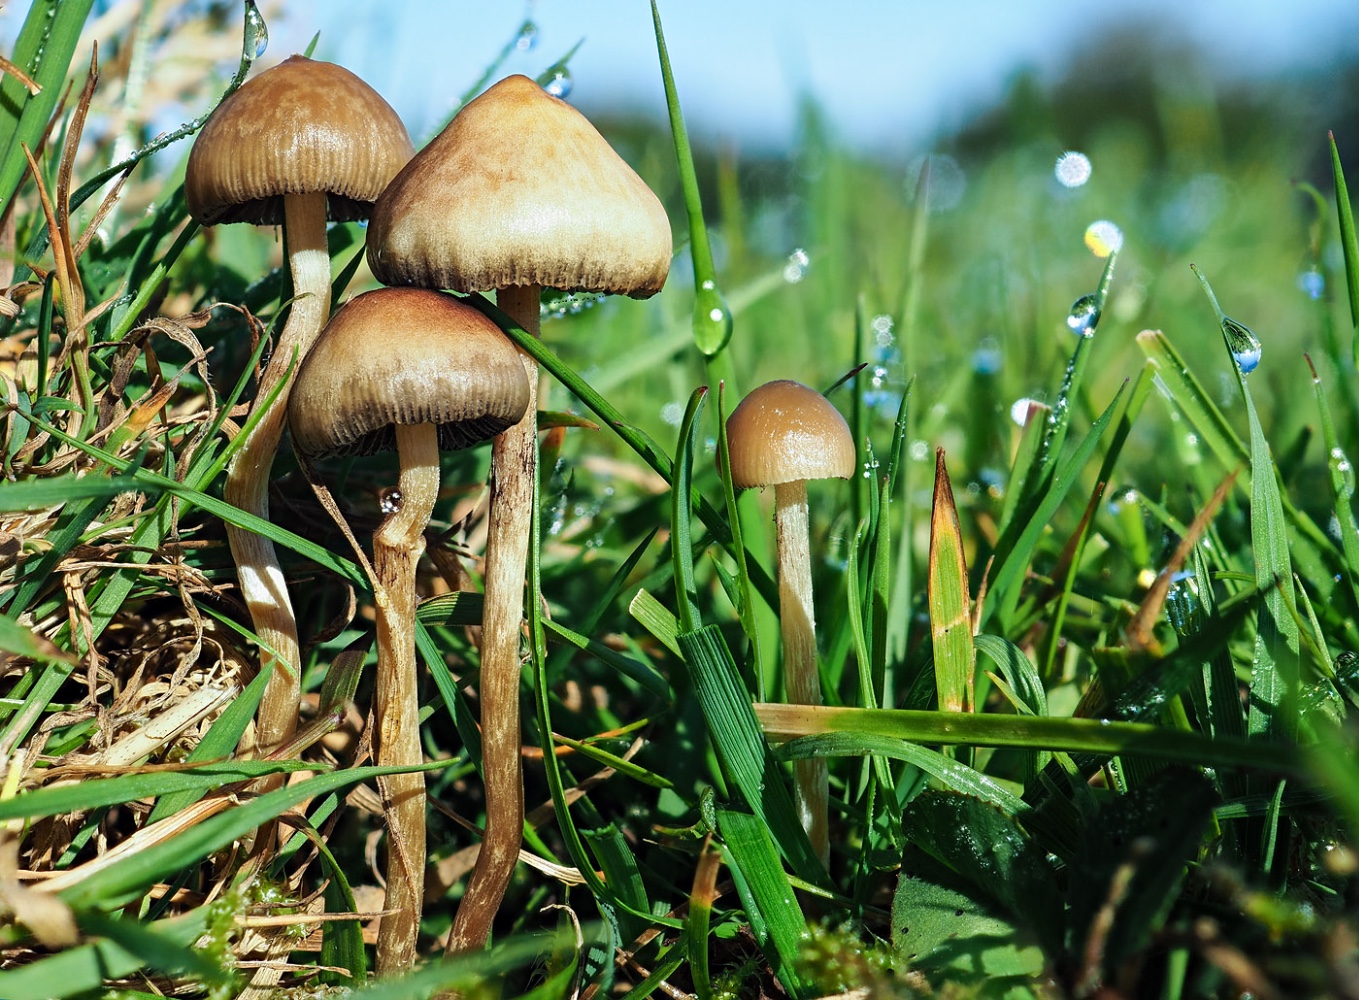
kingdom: Fungi
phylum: Basidiomycota
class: Agaricomycetes
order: Agaricales
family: Hymenogastraceae
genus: Psilocybe
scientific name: Psilocybe semilanceata
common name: spids nøgenhat
